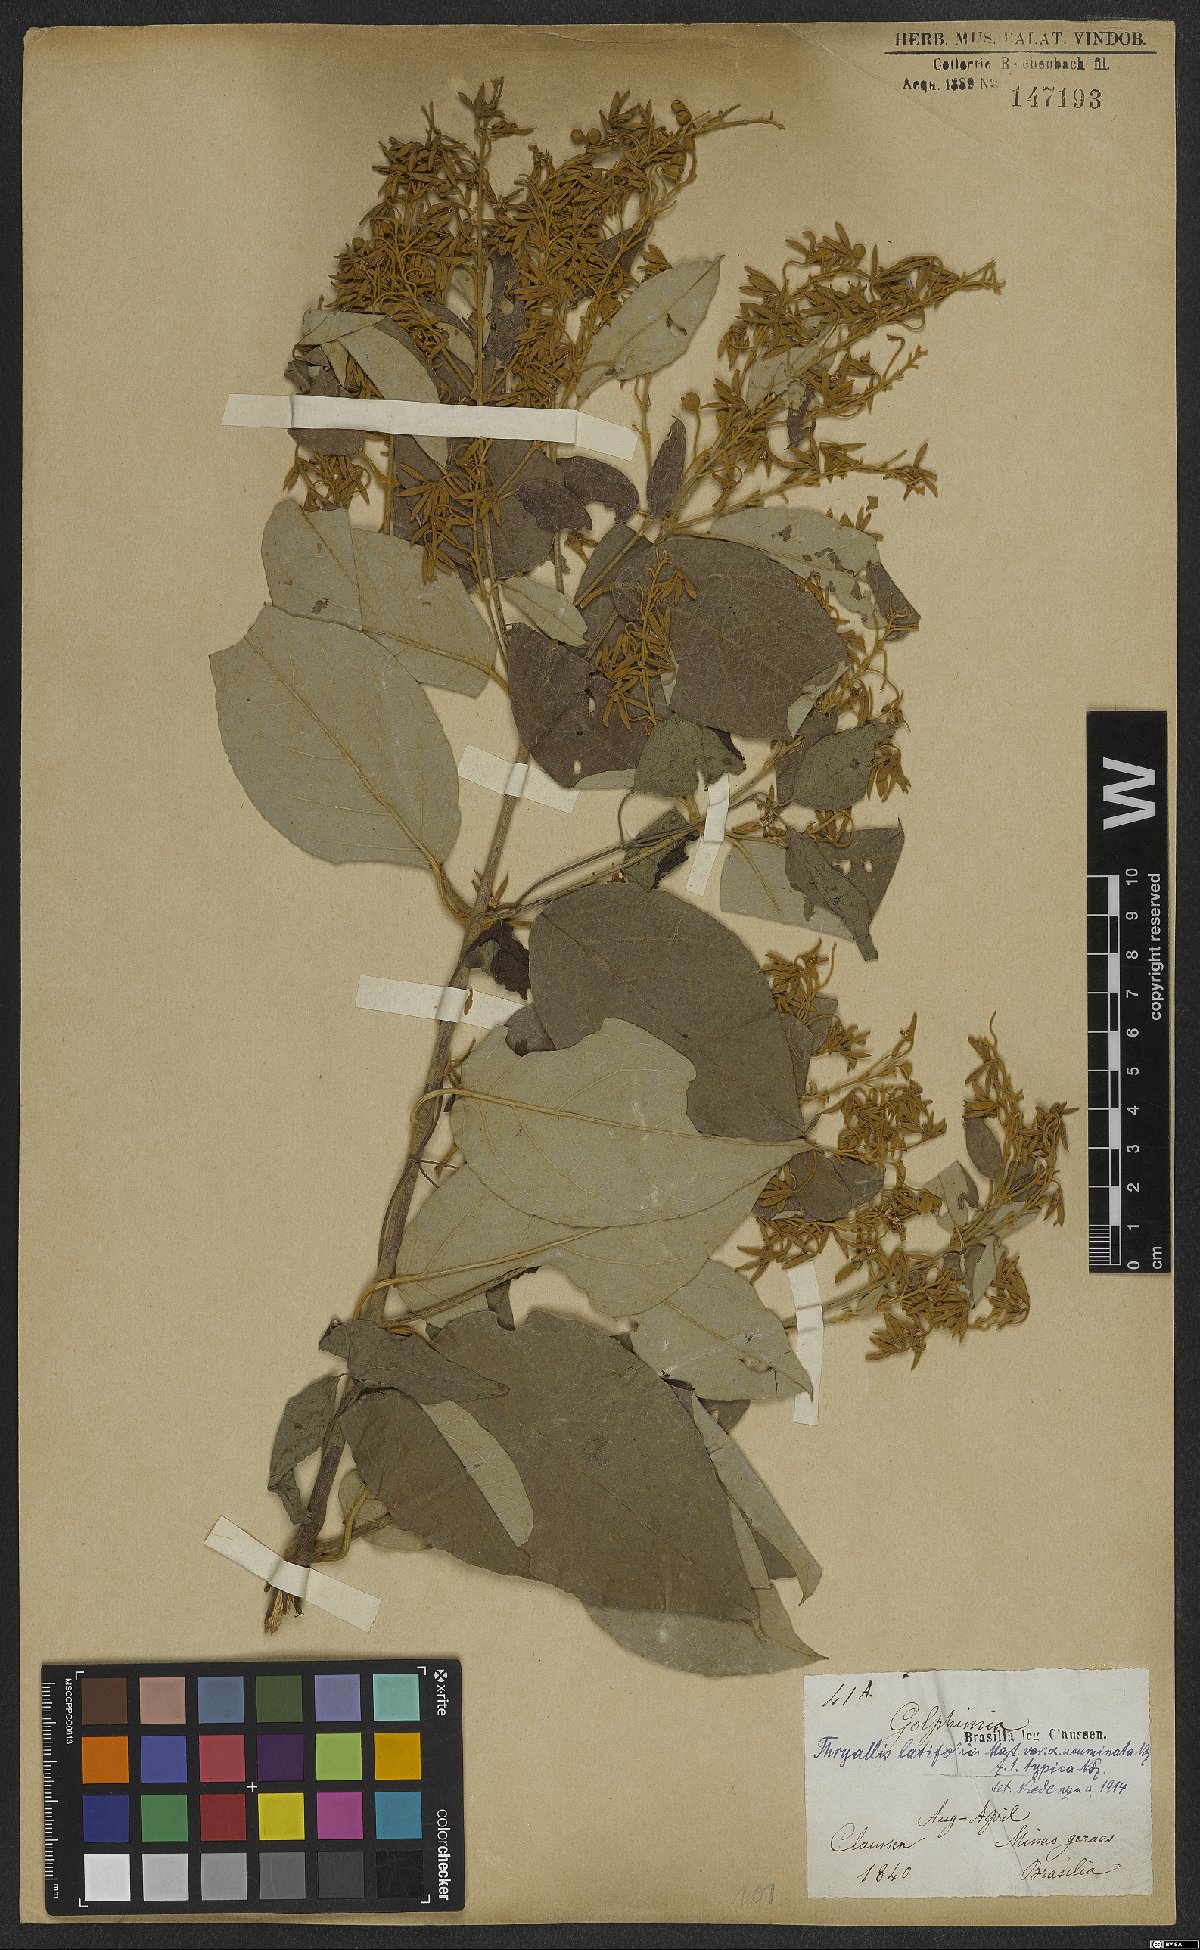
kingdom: Plantae
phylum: Tracheophyta
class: Magnoliopsida
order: Malpighiales
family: Malpighiaceae
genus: Thryallis
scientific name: Thryallis latifolia
